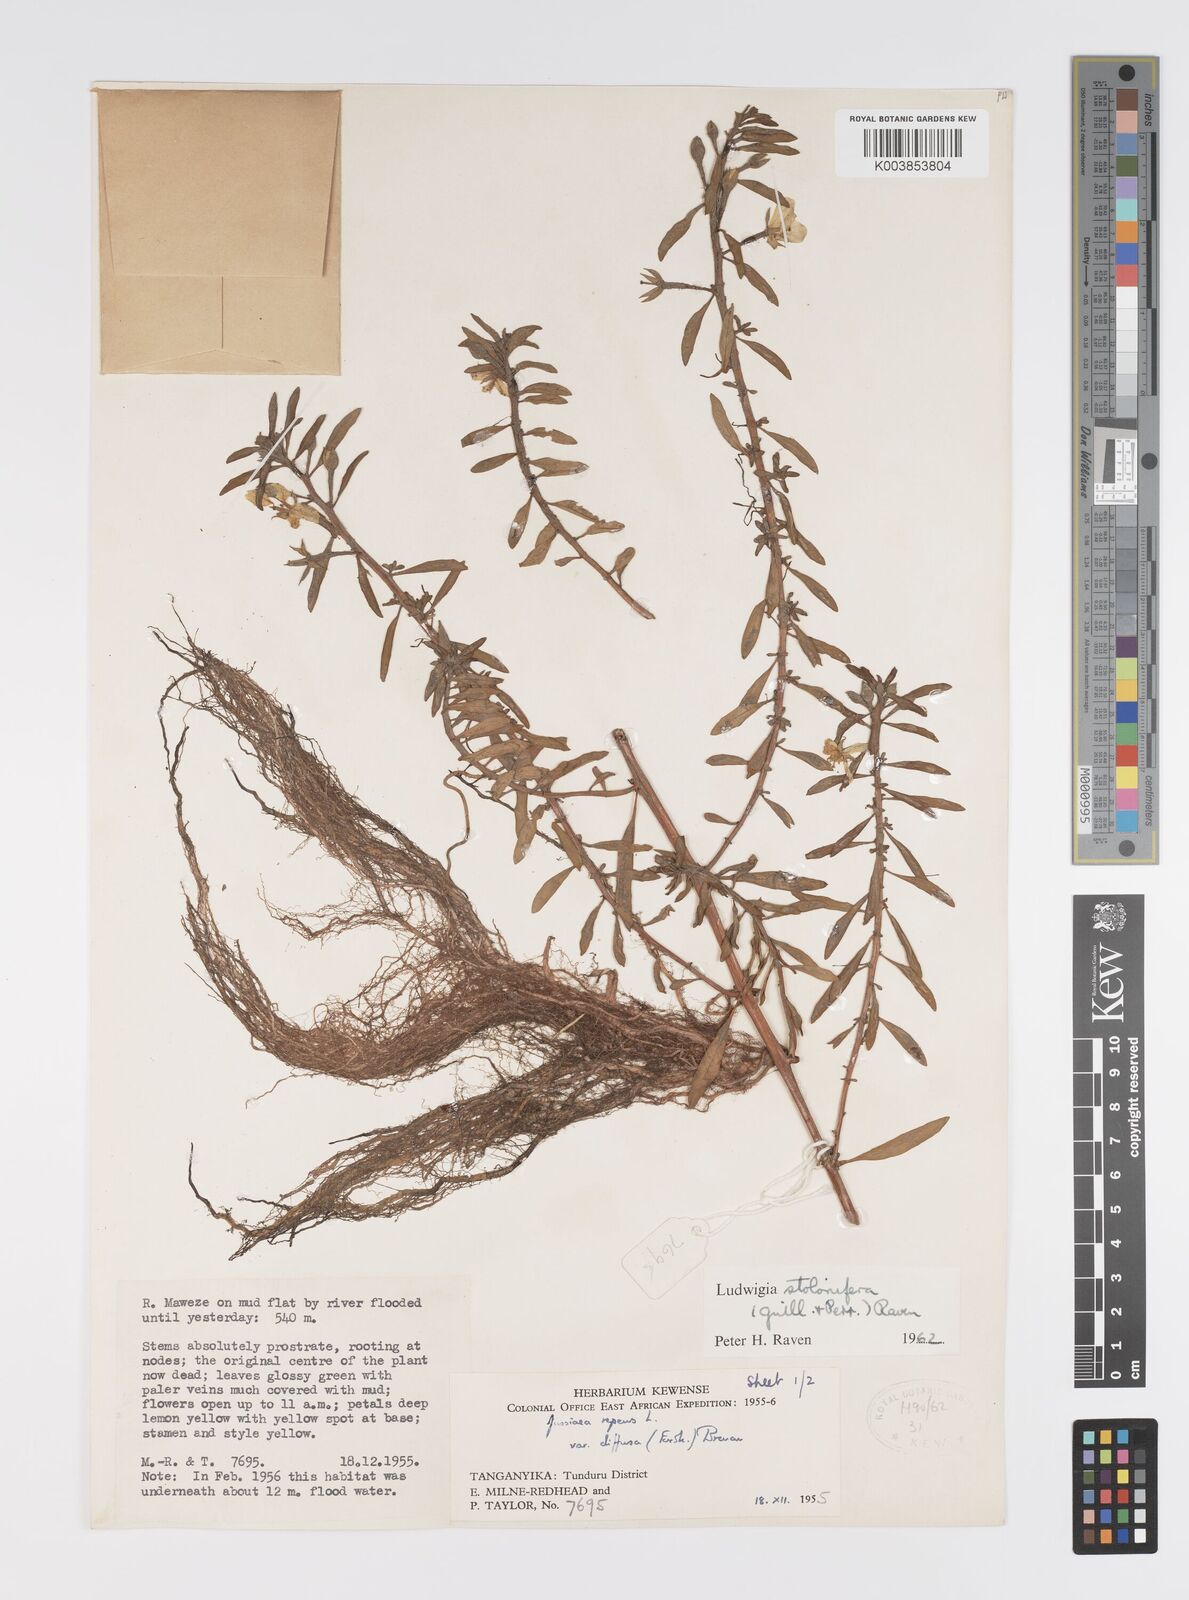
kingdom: Plantae
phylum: Tracheophyta
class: Magnoliopsida
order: Myrtales
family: Onagraceae
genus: Ludwigia
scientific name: Ludwigia adscendens
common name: Creeping water primrose
